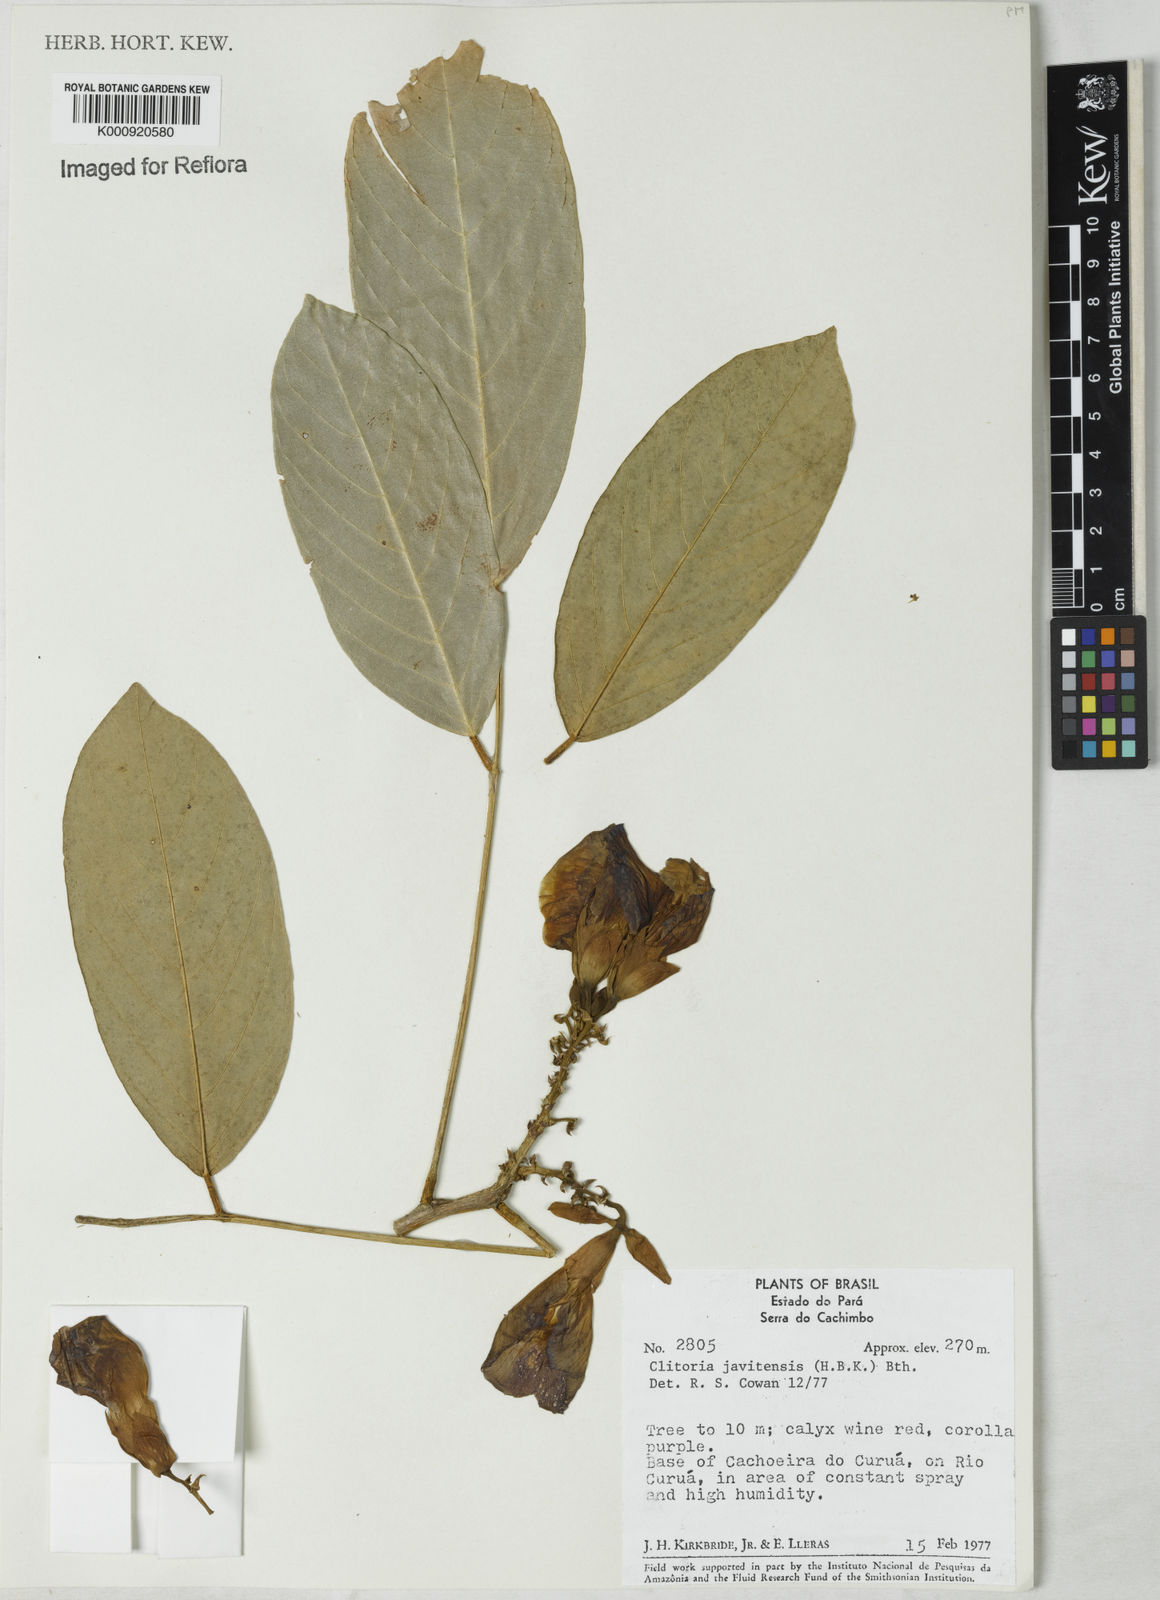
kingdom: Plantae
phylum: Tracheophyta
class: Magnoliopsida
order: Fabales
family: Fabaceae
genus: Clitoria
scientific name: Clitoria javitensis
